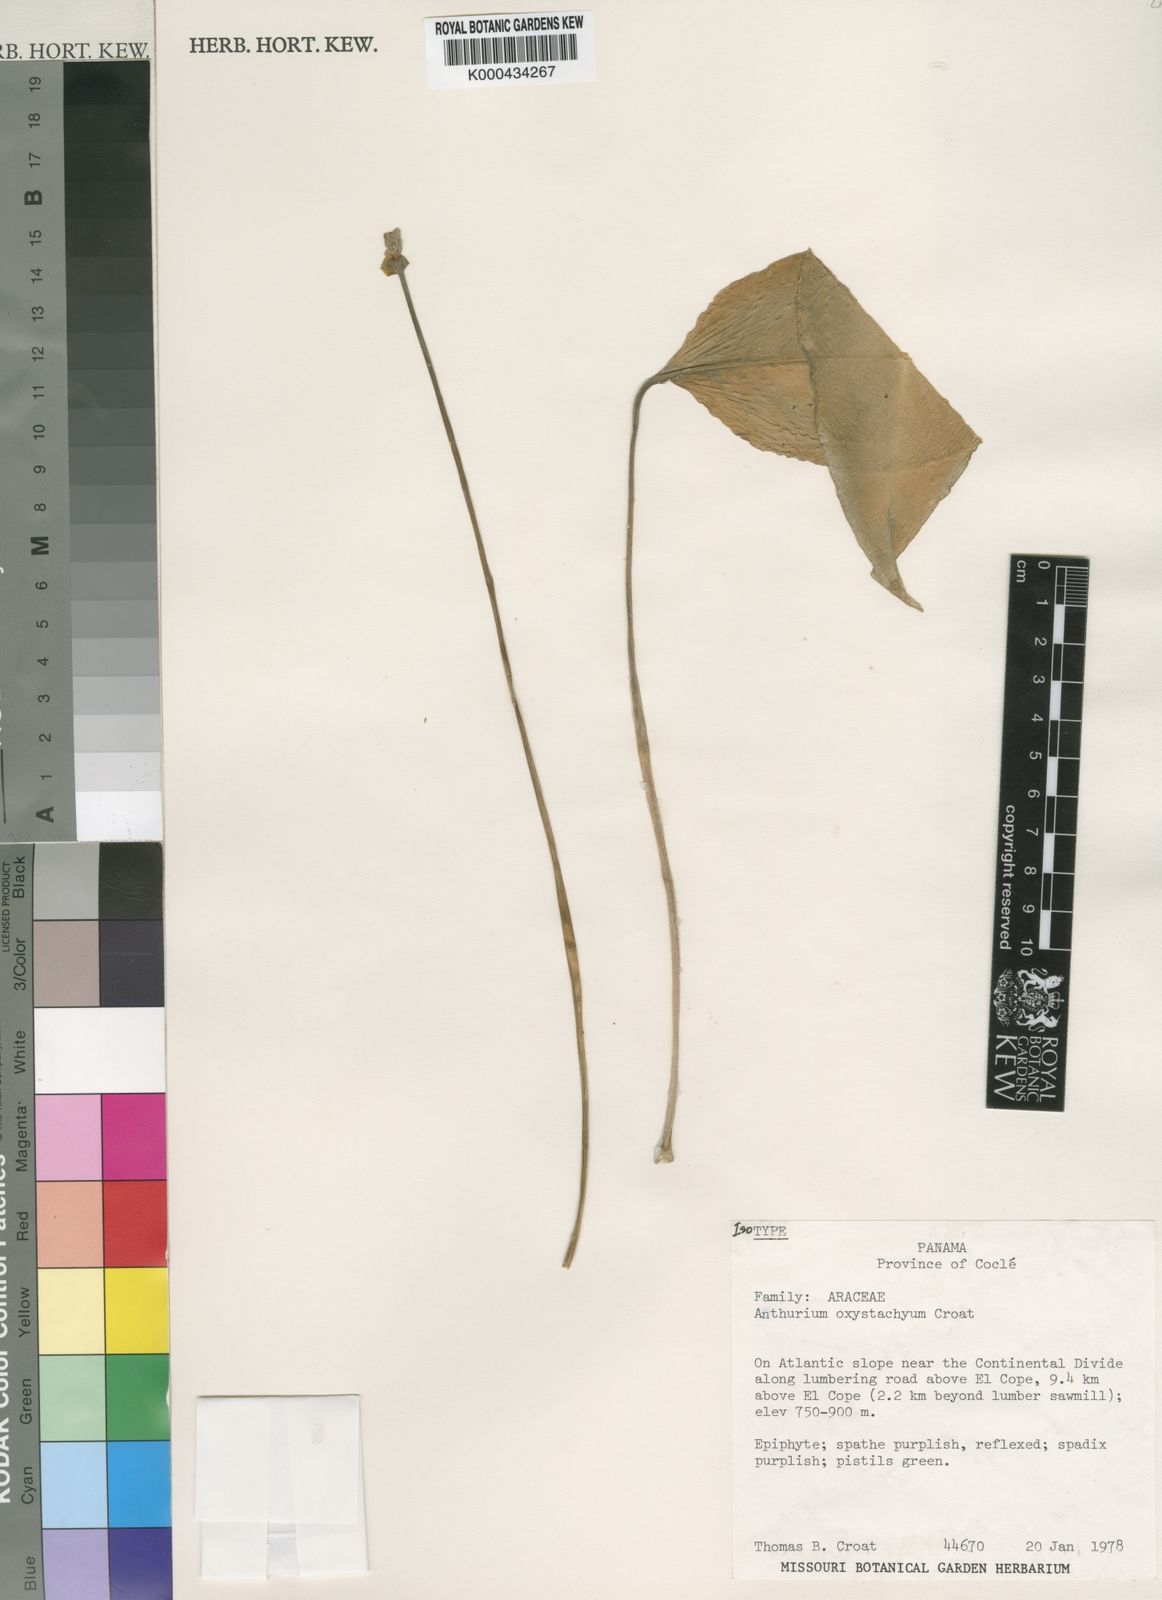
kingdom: Plantae
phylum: Tracheophyta
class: Liliopsida
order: Alismatales
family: Araceae
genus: Anthurium
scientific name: Anthurium oxystachyum
